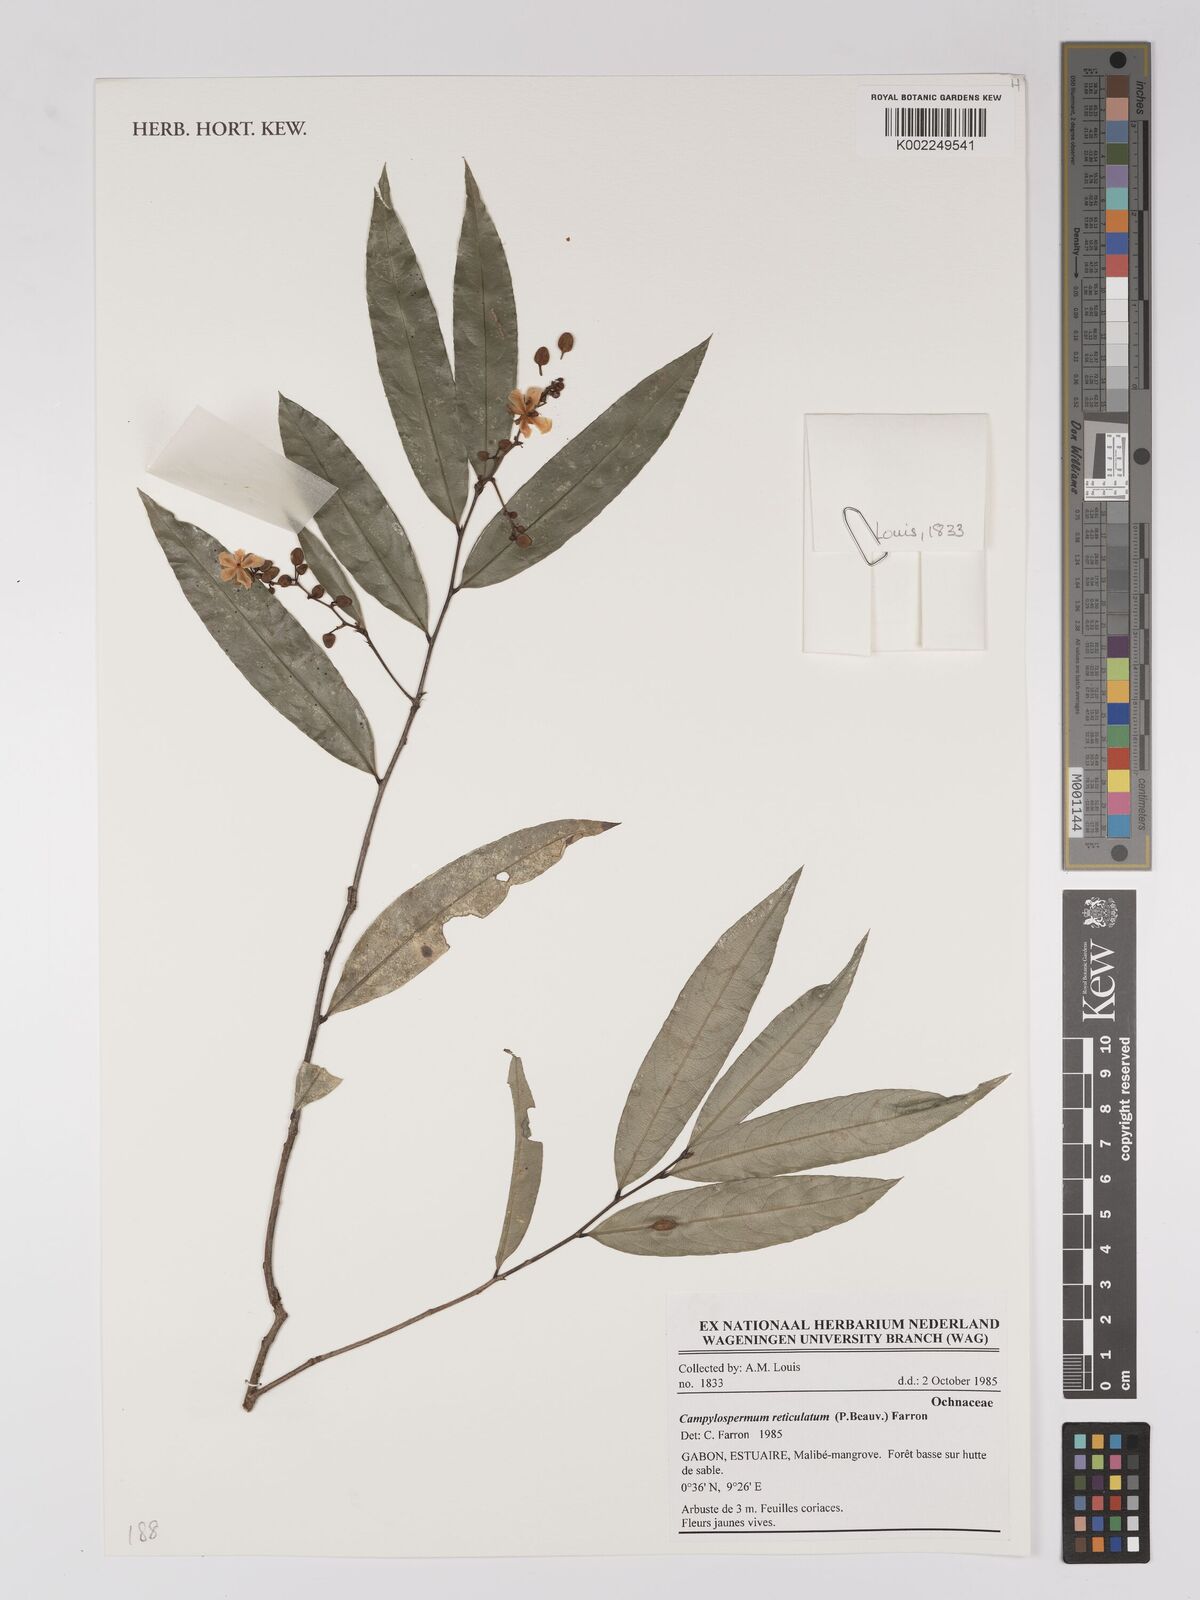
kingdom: Plantae
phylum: Tracheophyta
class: Magnoliopsida
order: Malpighiales
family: Ochnaceae
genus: Campylospermum
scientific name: Campylospermum reticulatum
